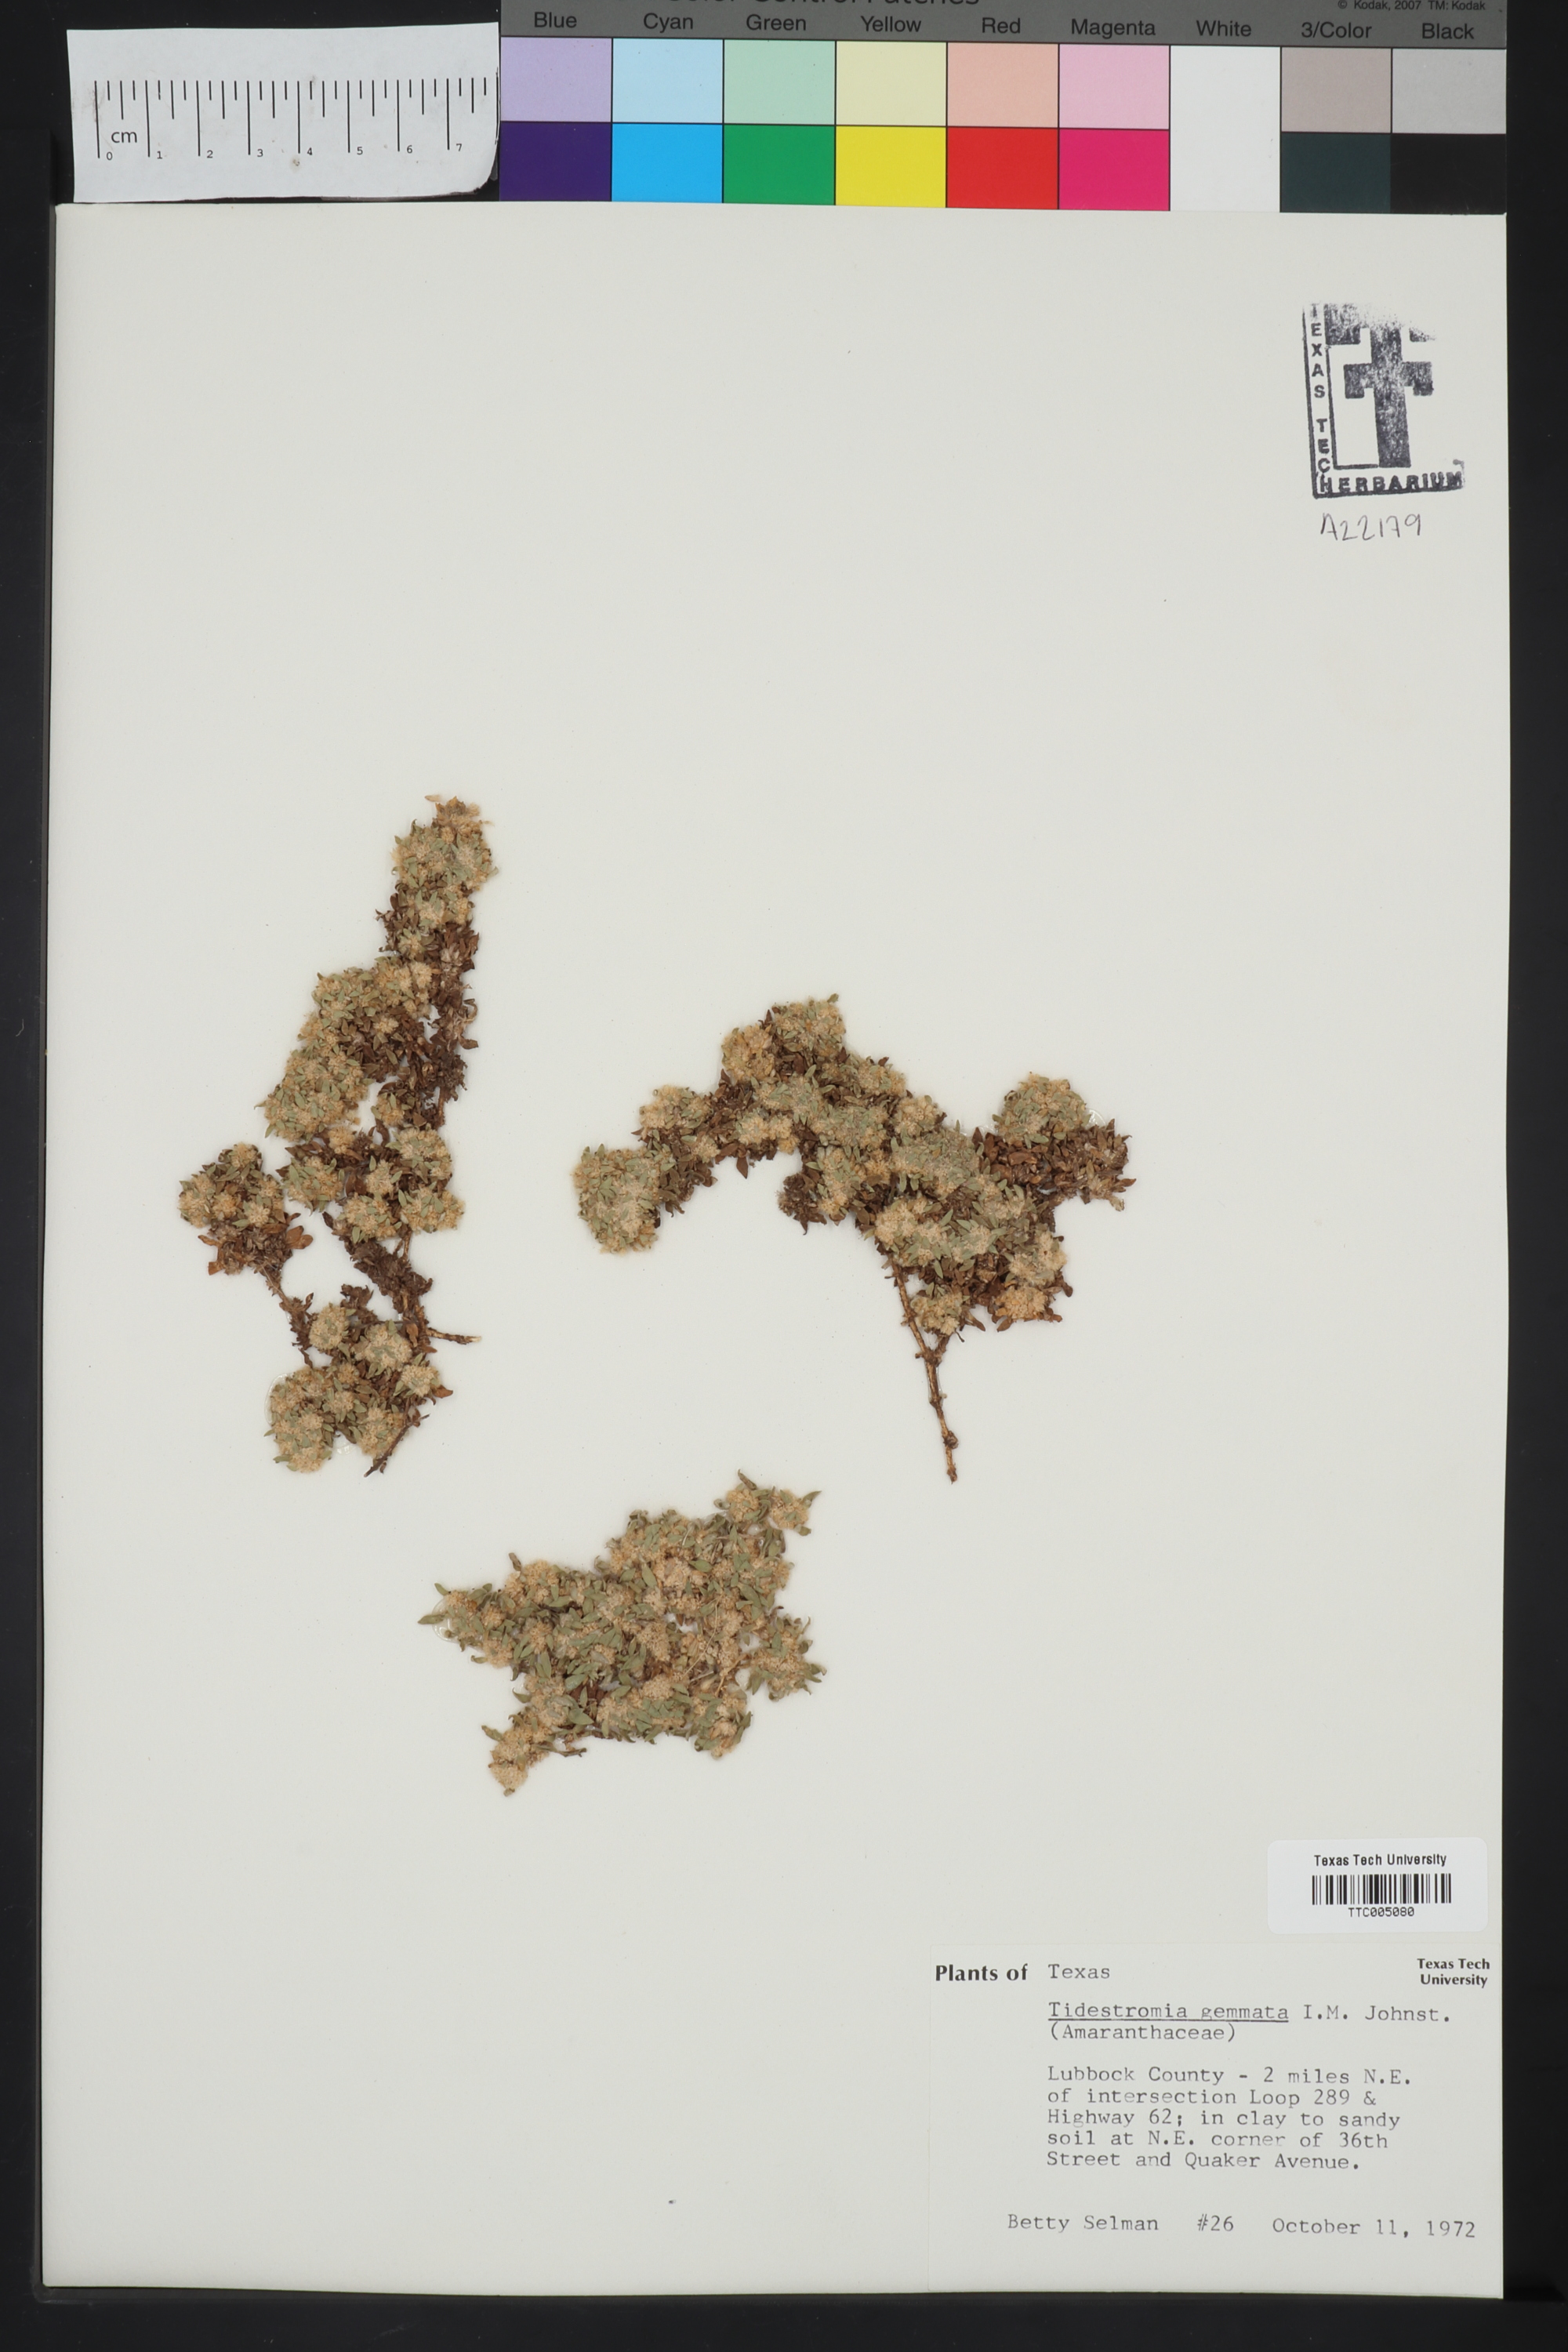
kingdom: Plantae
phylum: Tracheophyta
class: Magnoliopsida
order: Caryophyllales
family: Amaranthaceae
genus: Tidestromia
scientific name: Tidestromia gemmata
